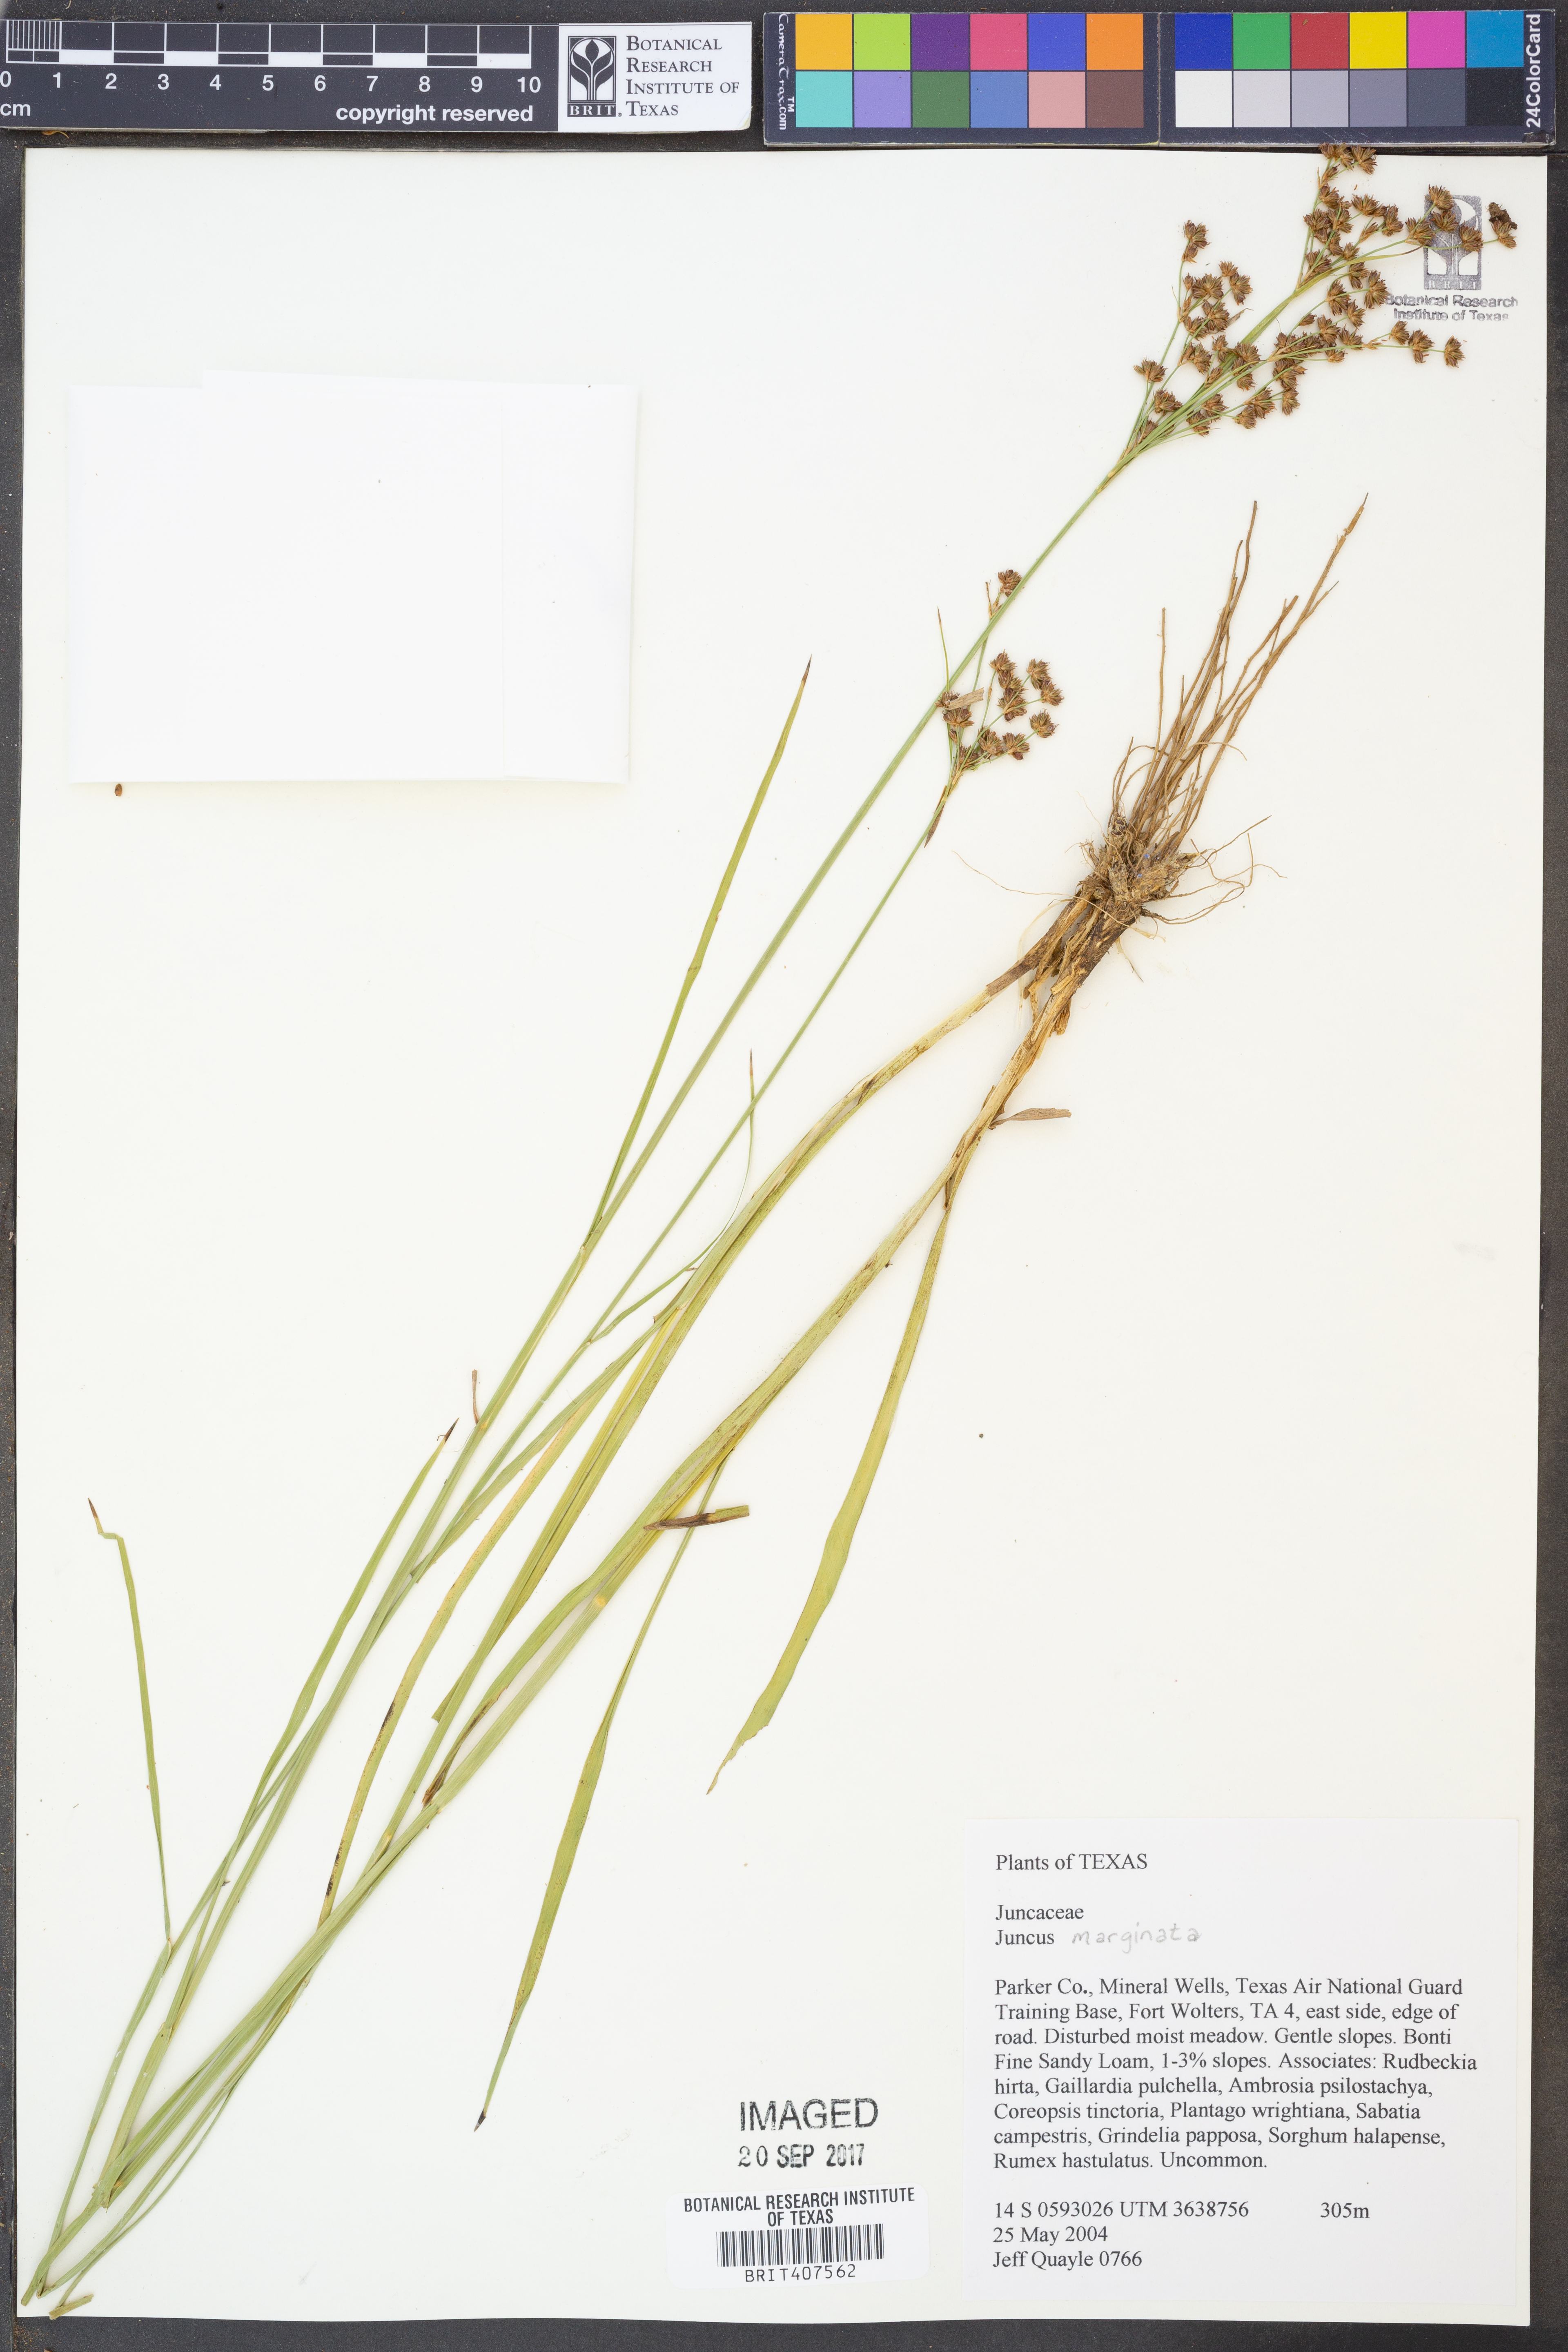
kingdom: Plantae
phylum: Tracheophyta
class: Liliopsida
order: Poales
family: Juncaceae
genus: Juncus
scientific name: Juncus marginatus
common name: Grass-leaf rush
